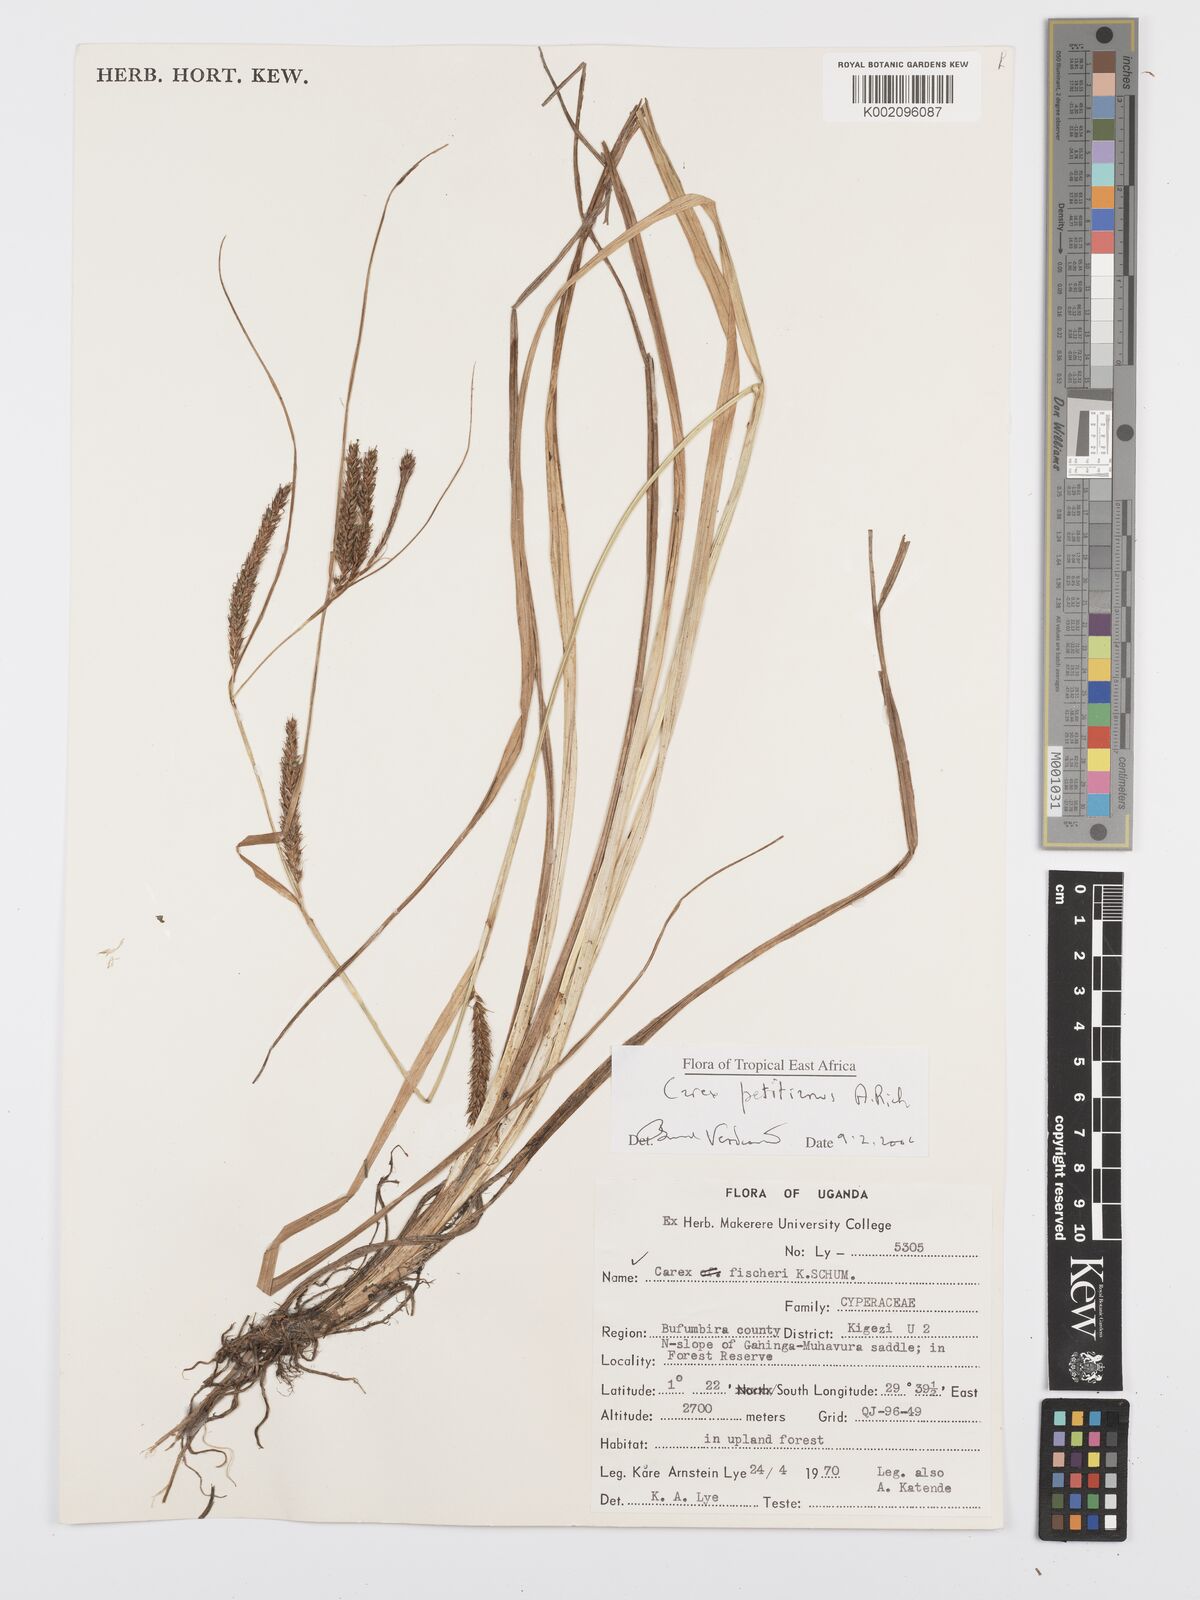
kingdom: Plantae
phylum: Tracheophyta
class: Liliopsida
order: Poales
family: Cyperaceae
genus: Carex
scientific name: Carex fischeri
